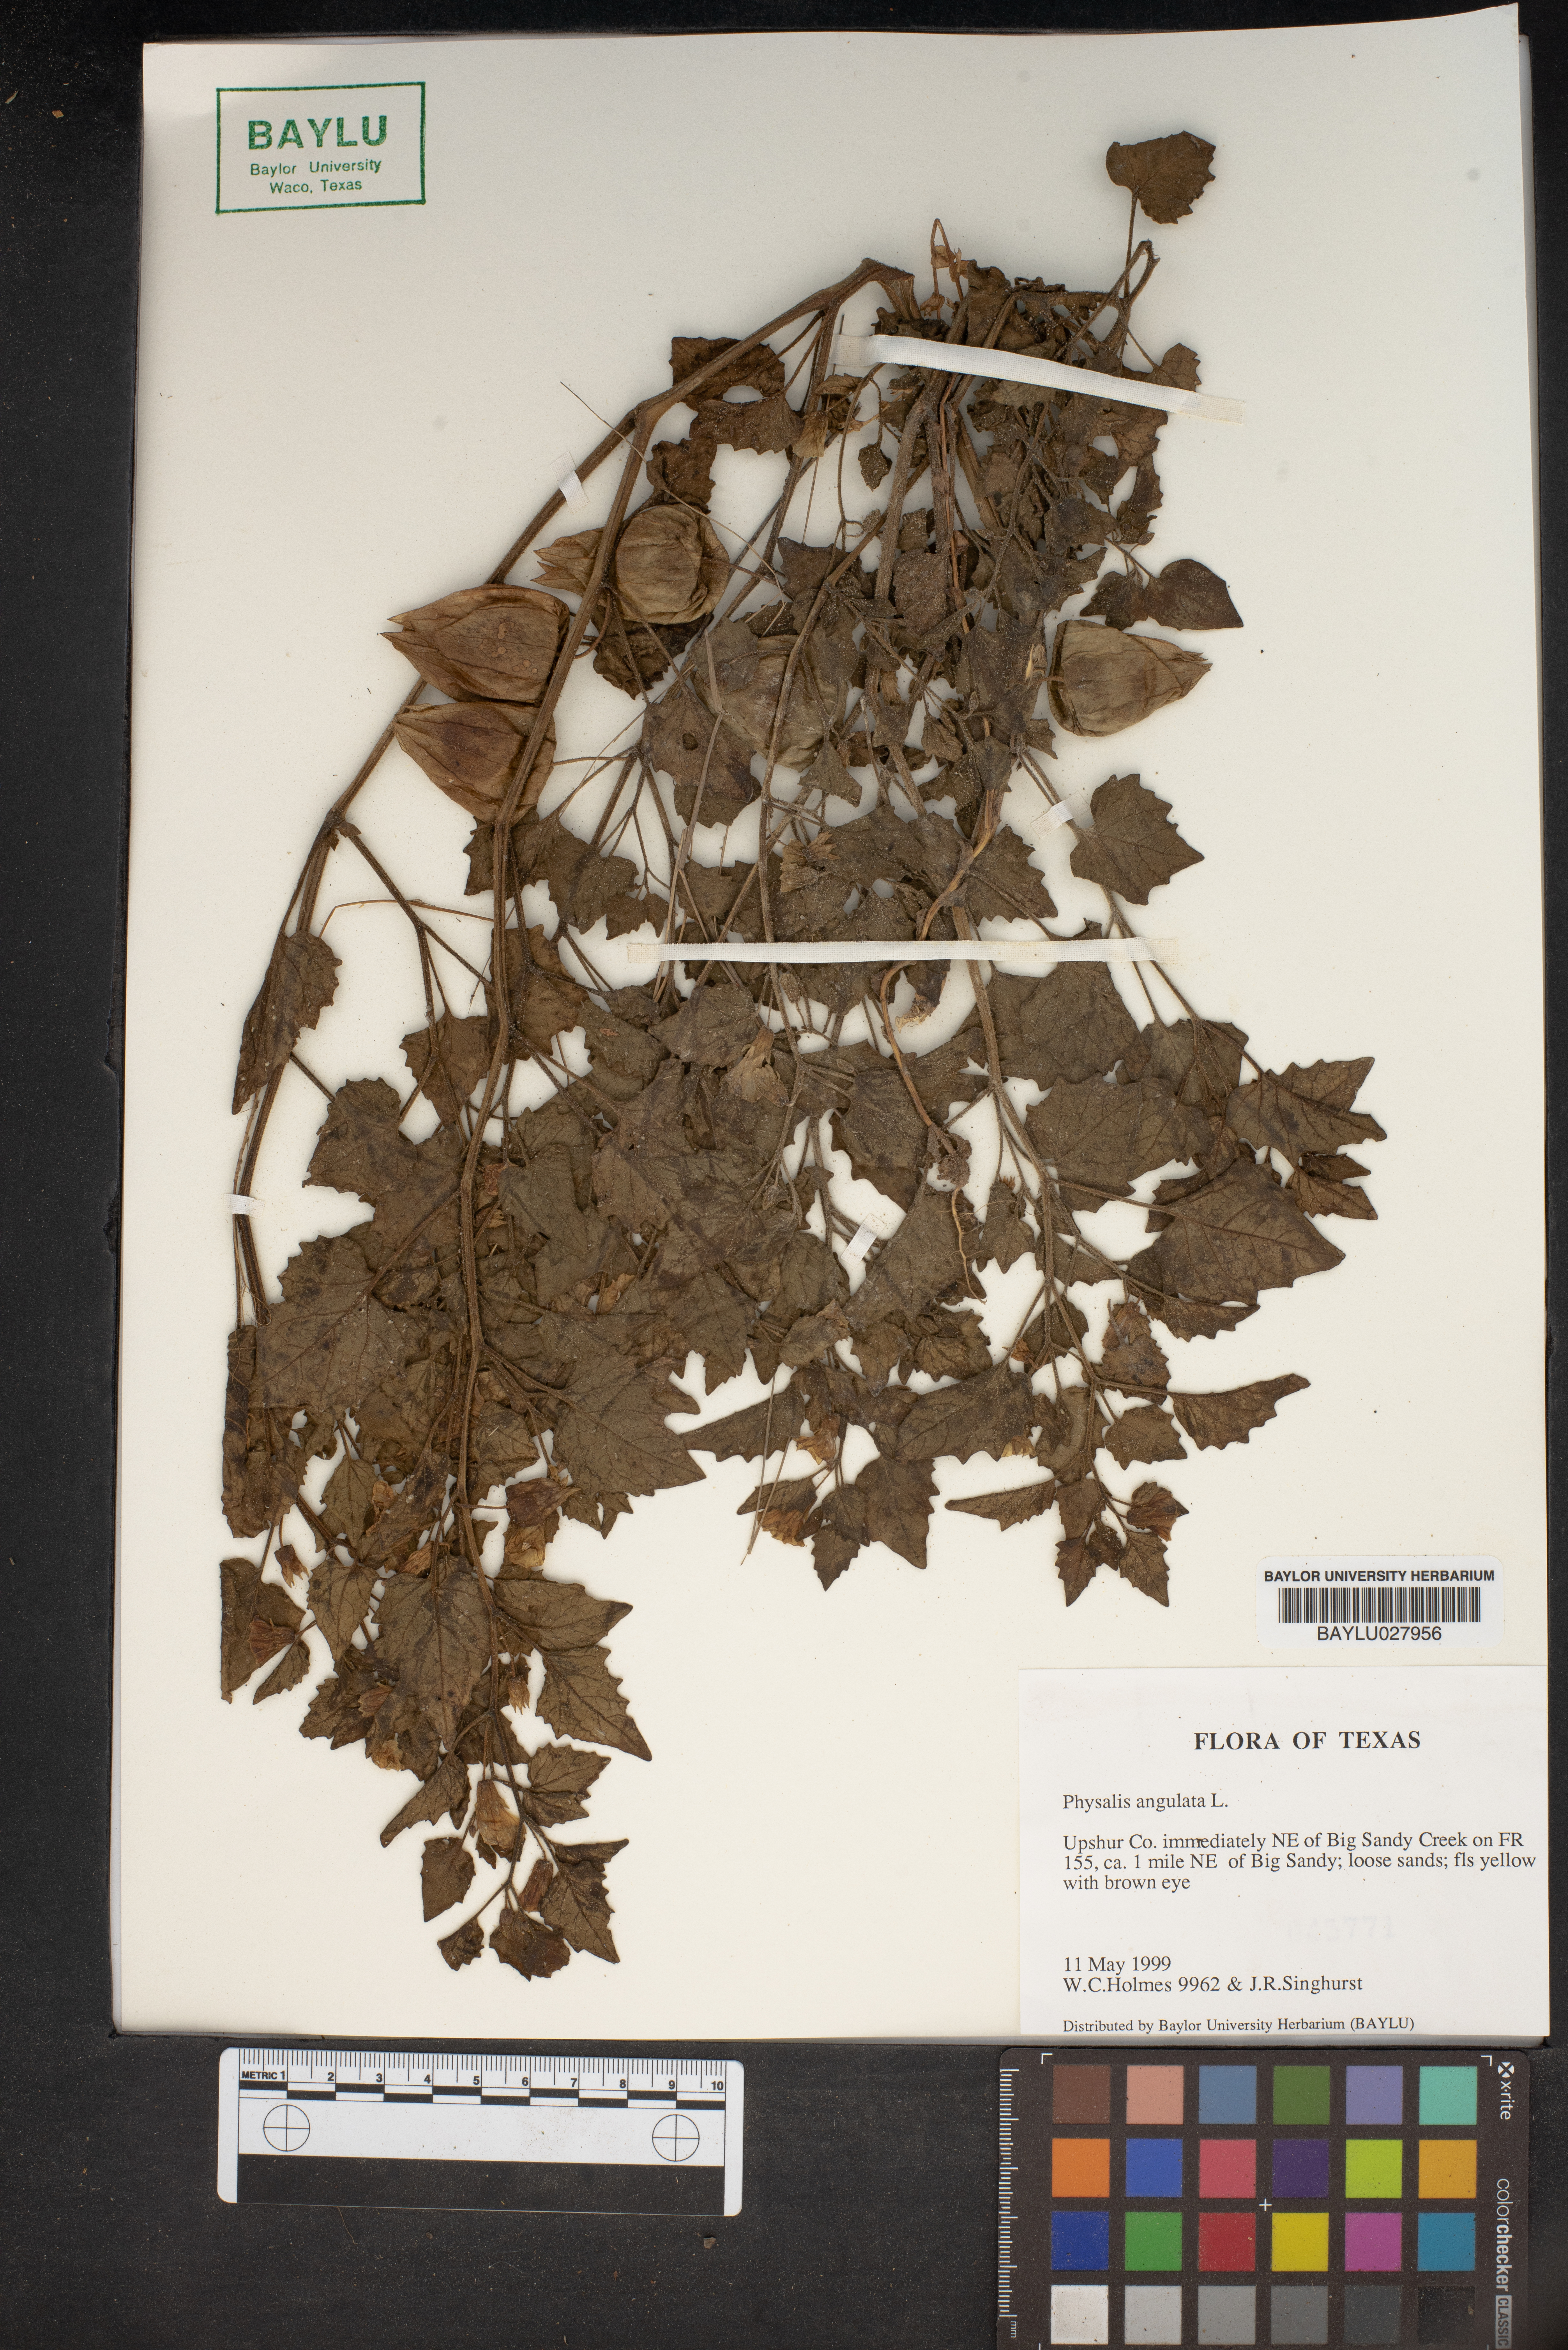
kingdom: Plantae
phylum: Tracheophyta
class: Magnoliopsida
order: Solanales
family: Solanaceae
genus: Physalis
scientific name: Physalis angulata
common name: Angular winter-cherry
